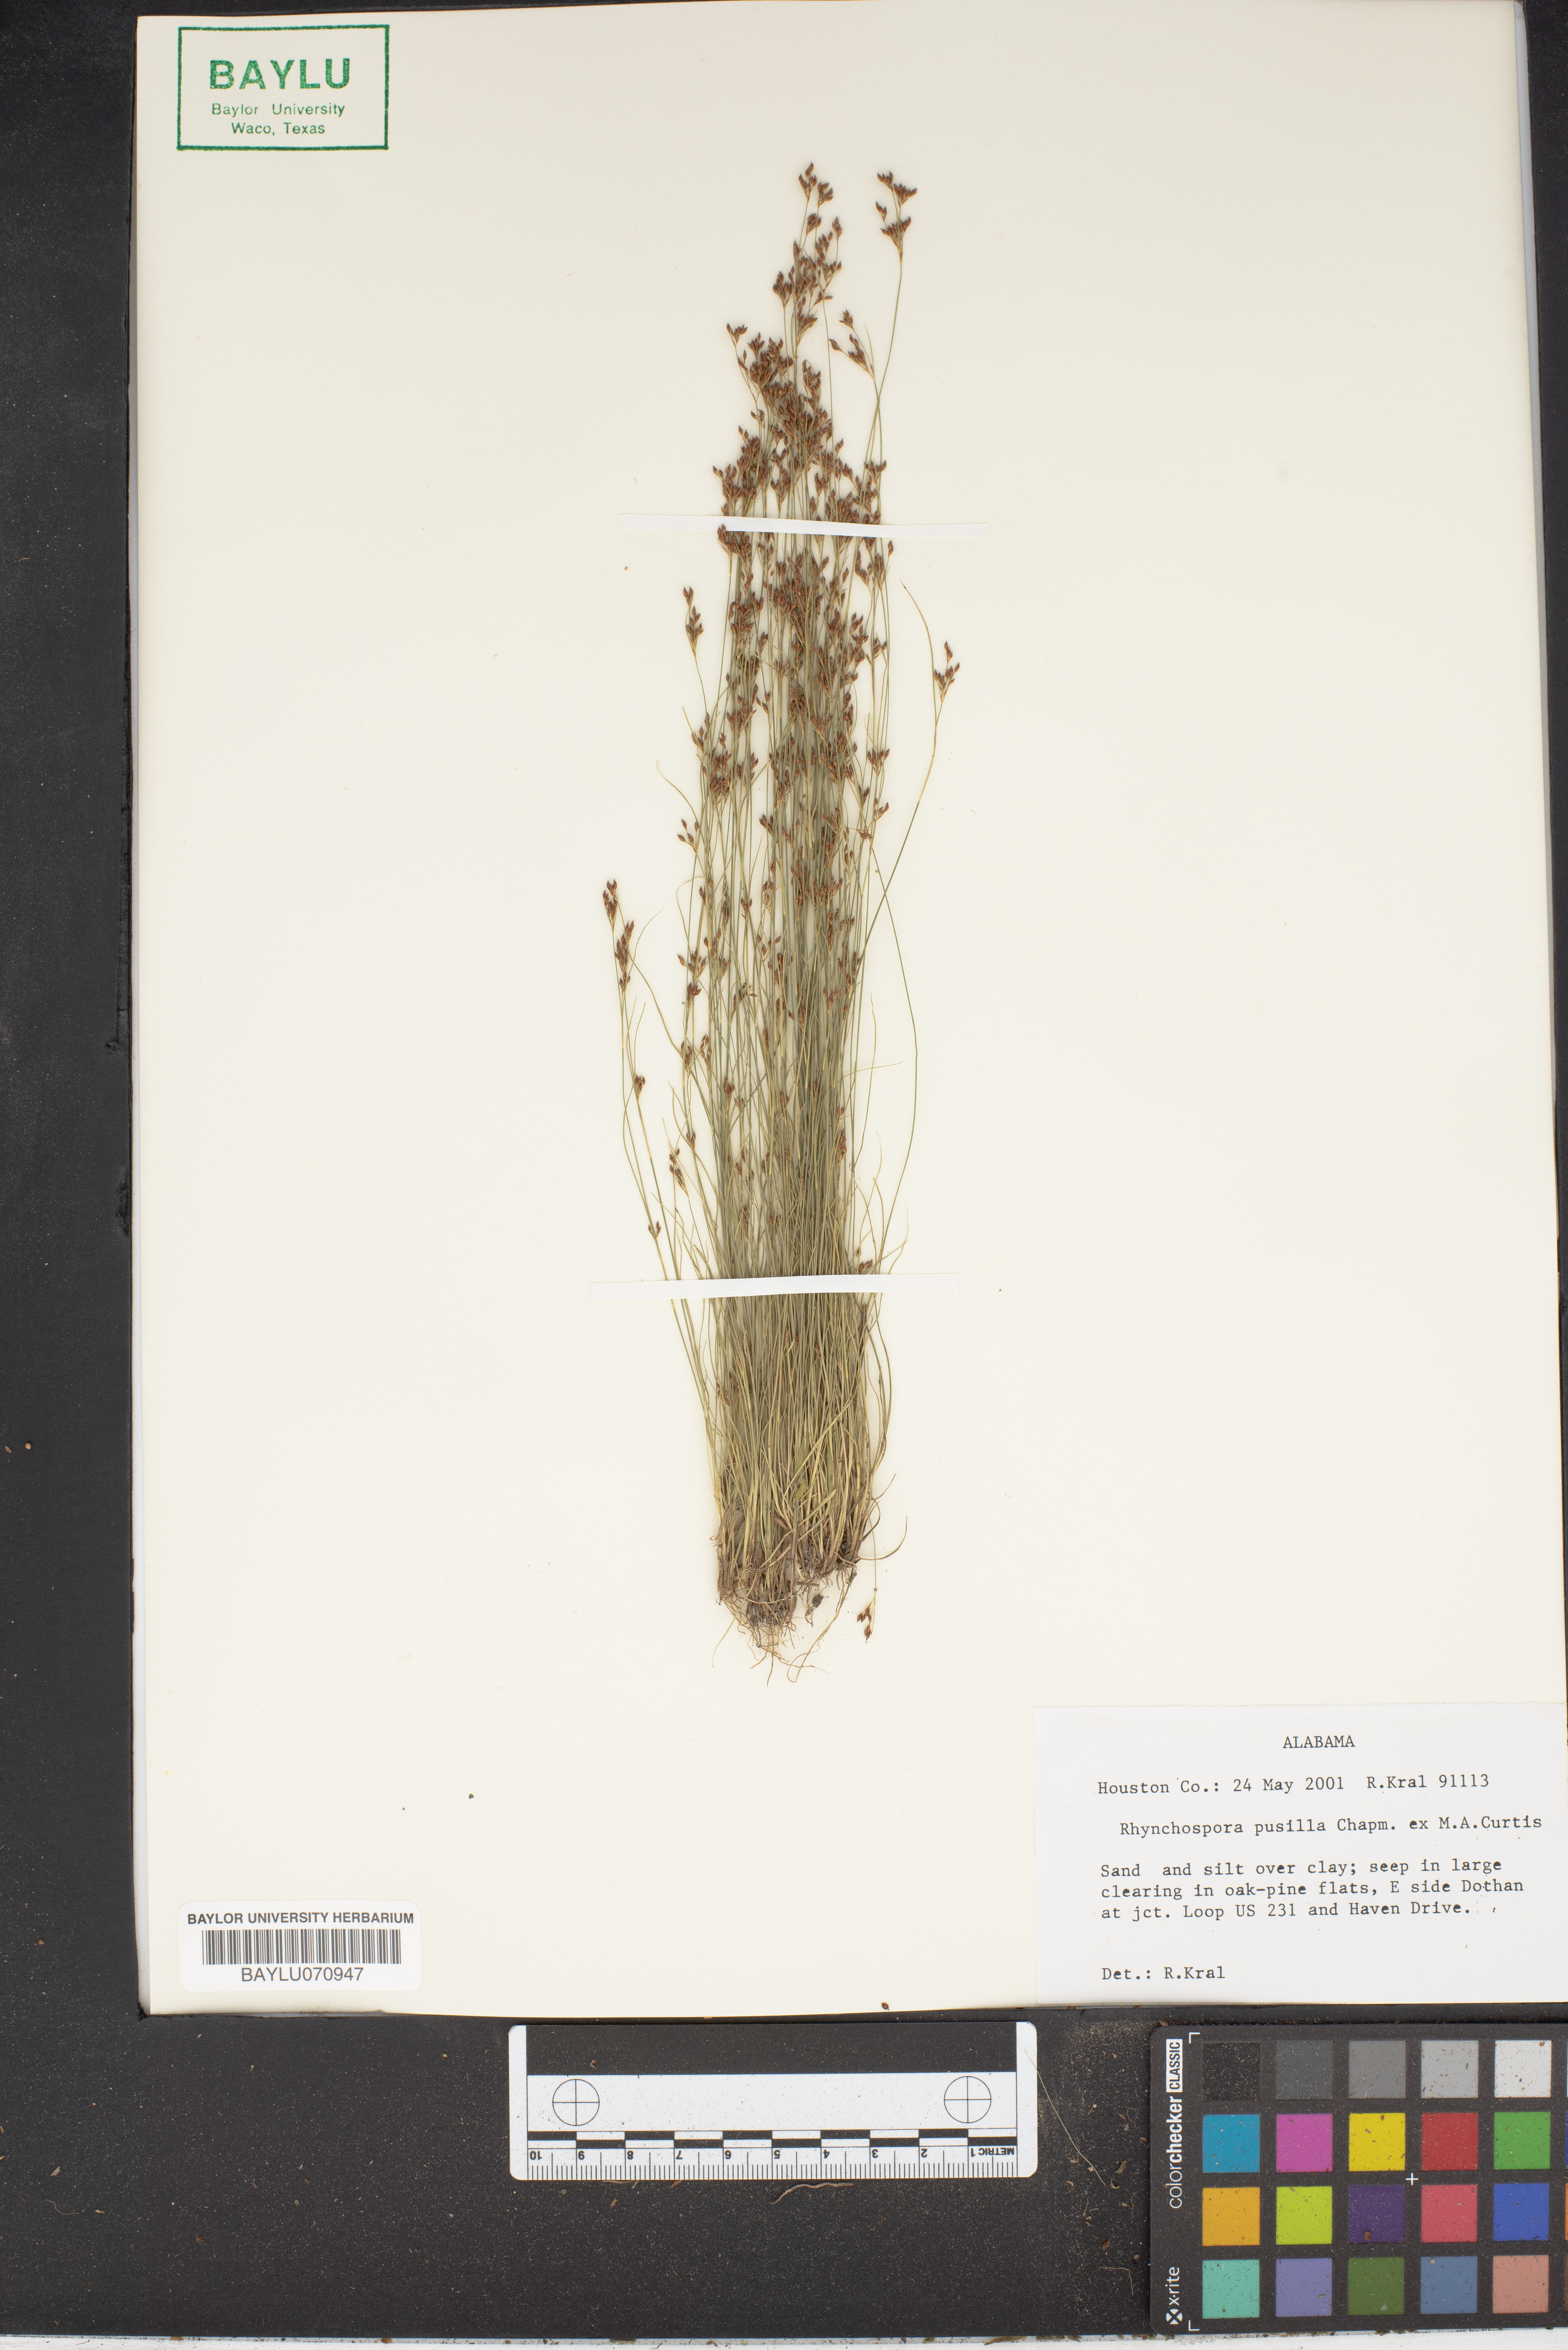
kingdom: Plantae
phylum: Tracheophyta
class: Liliopsida
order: Poales
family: Cyperaceae
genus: Rhynchospora
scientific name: Rhynchospora pusilla
